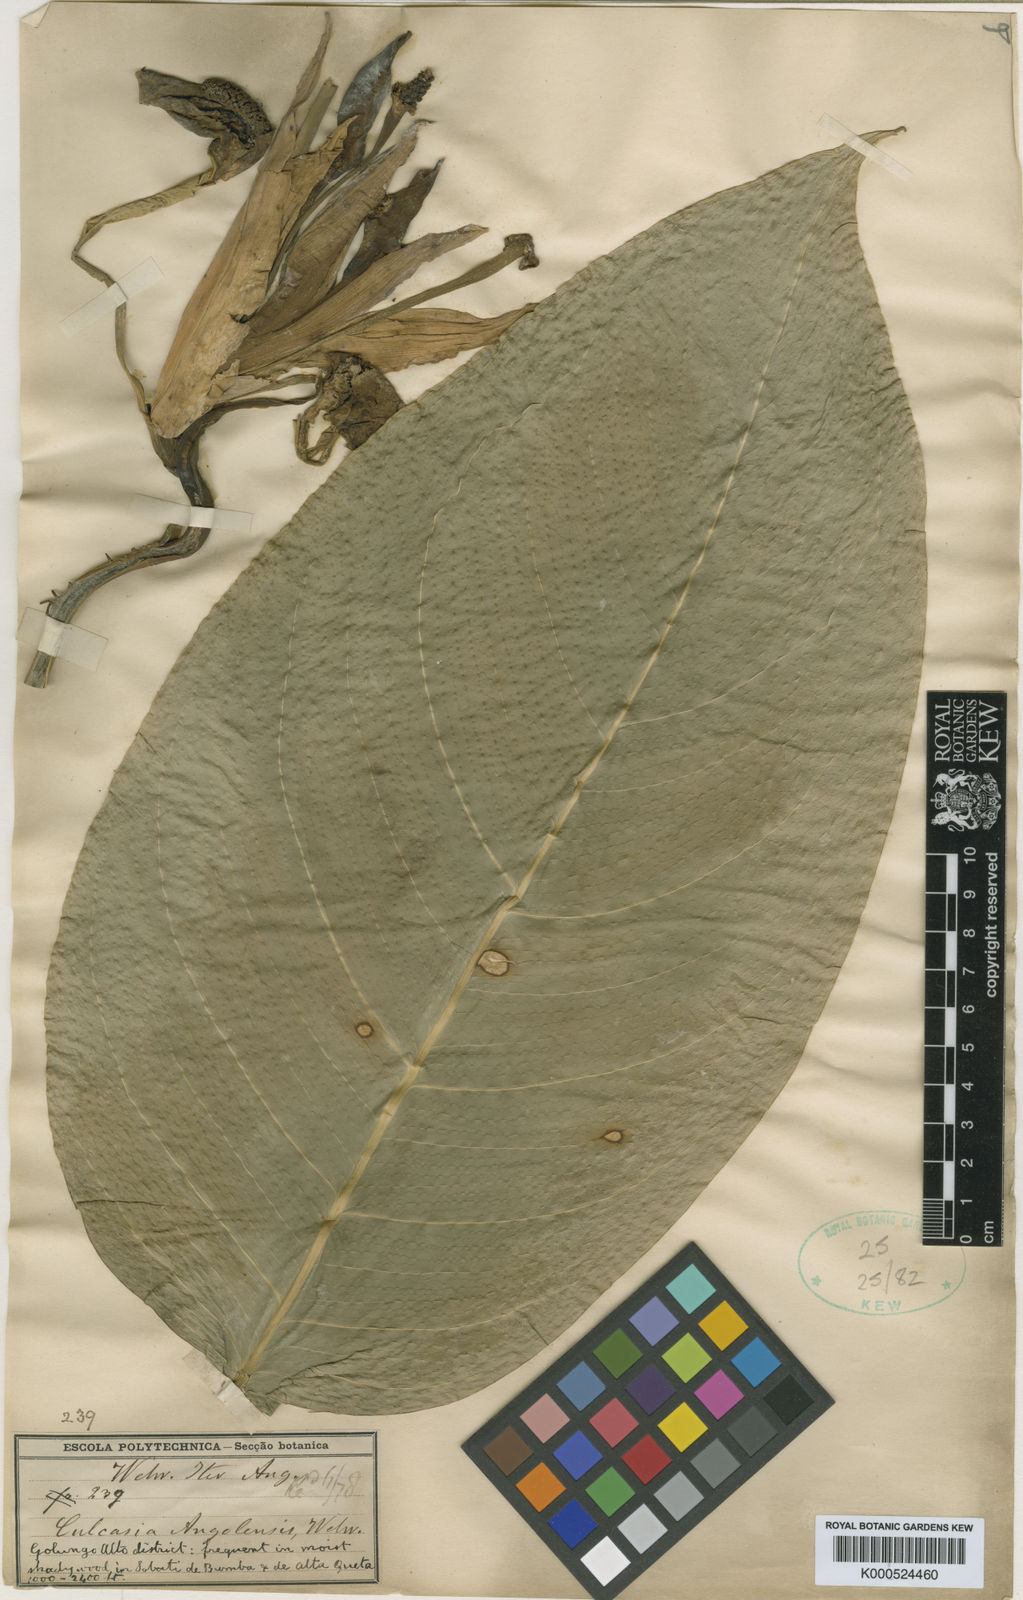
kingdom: Plantae
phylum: Tracheophyta
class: Liliopsida
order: Alismatales
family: Araceae
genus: Culcasia
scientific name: Culcasia angolensis
